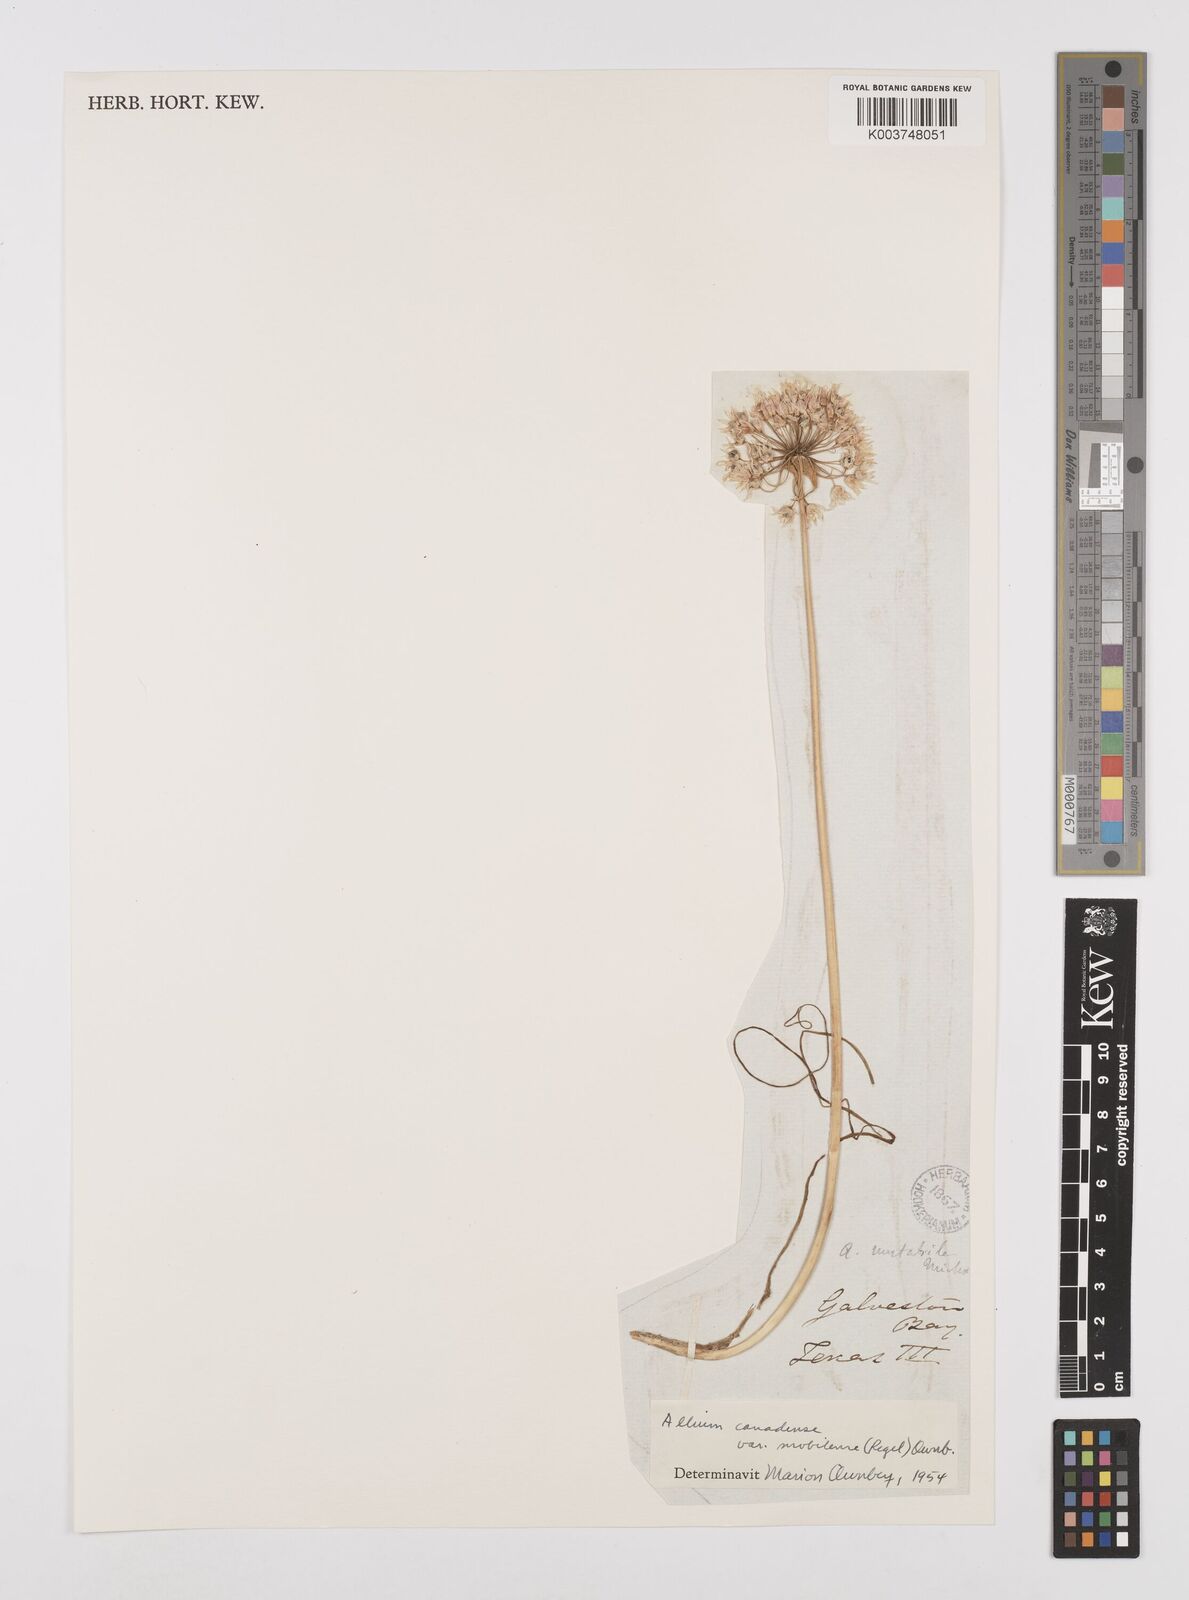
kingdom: Plantae
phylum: Tracheophyta
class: Liliopsida
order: Asparagales
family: Amaryllidaceae
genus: Allium
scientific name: Allium canadense
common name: Meadow garlic
